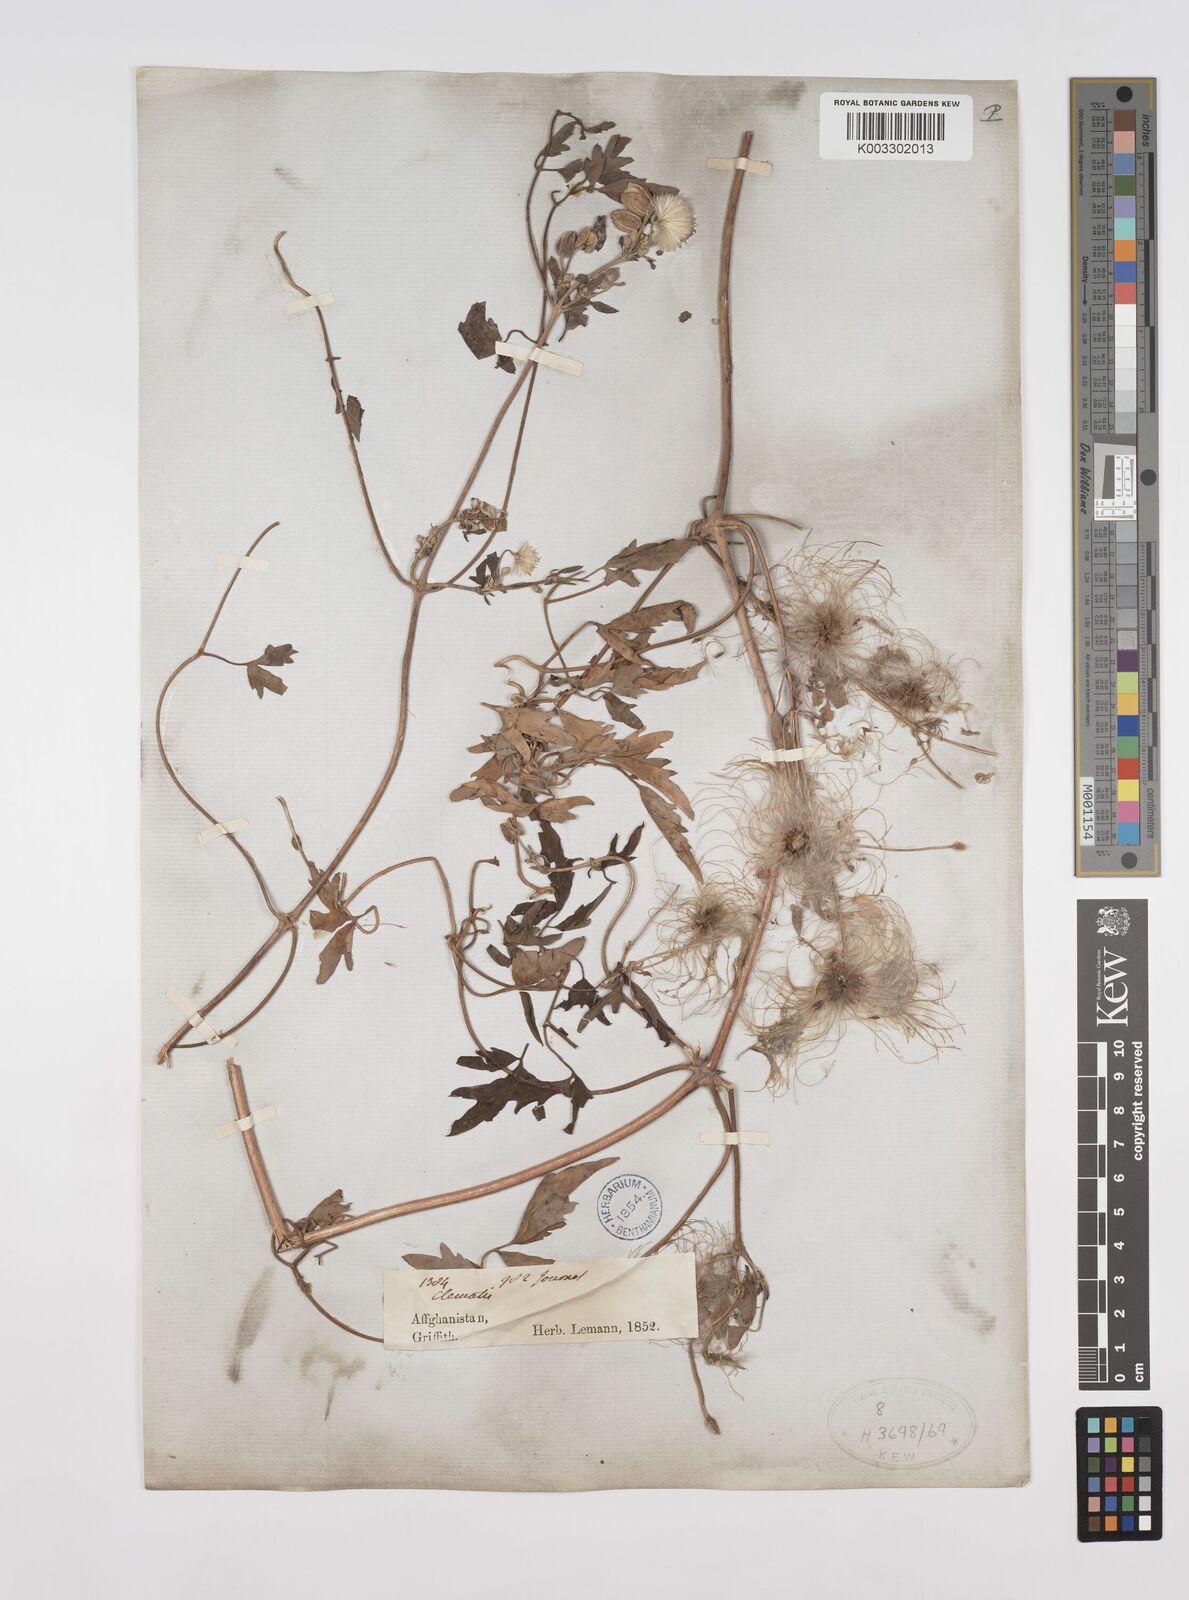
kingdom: Plantae
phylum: Tracheophyta
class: Magnoliopsida
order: Ranunculales
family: Ranunculaceae
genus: Clematis
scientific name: Clematis orientalis
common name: Oriental virgin's-bower
